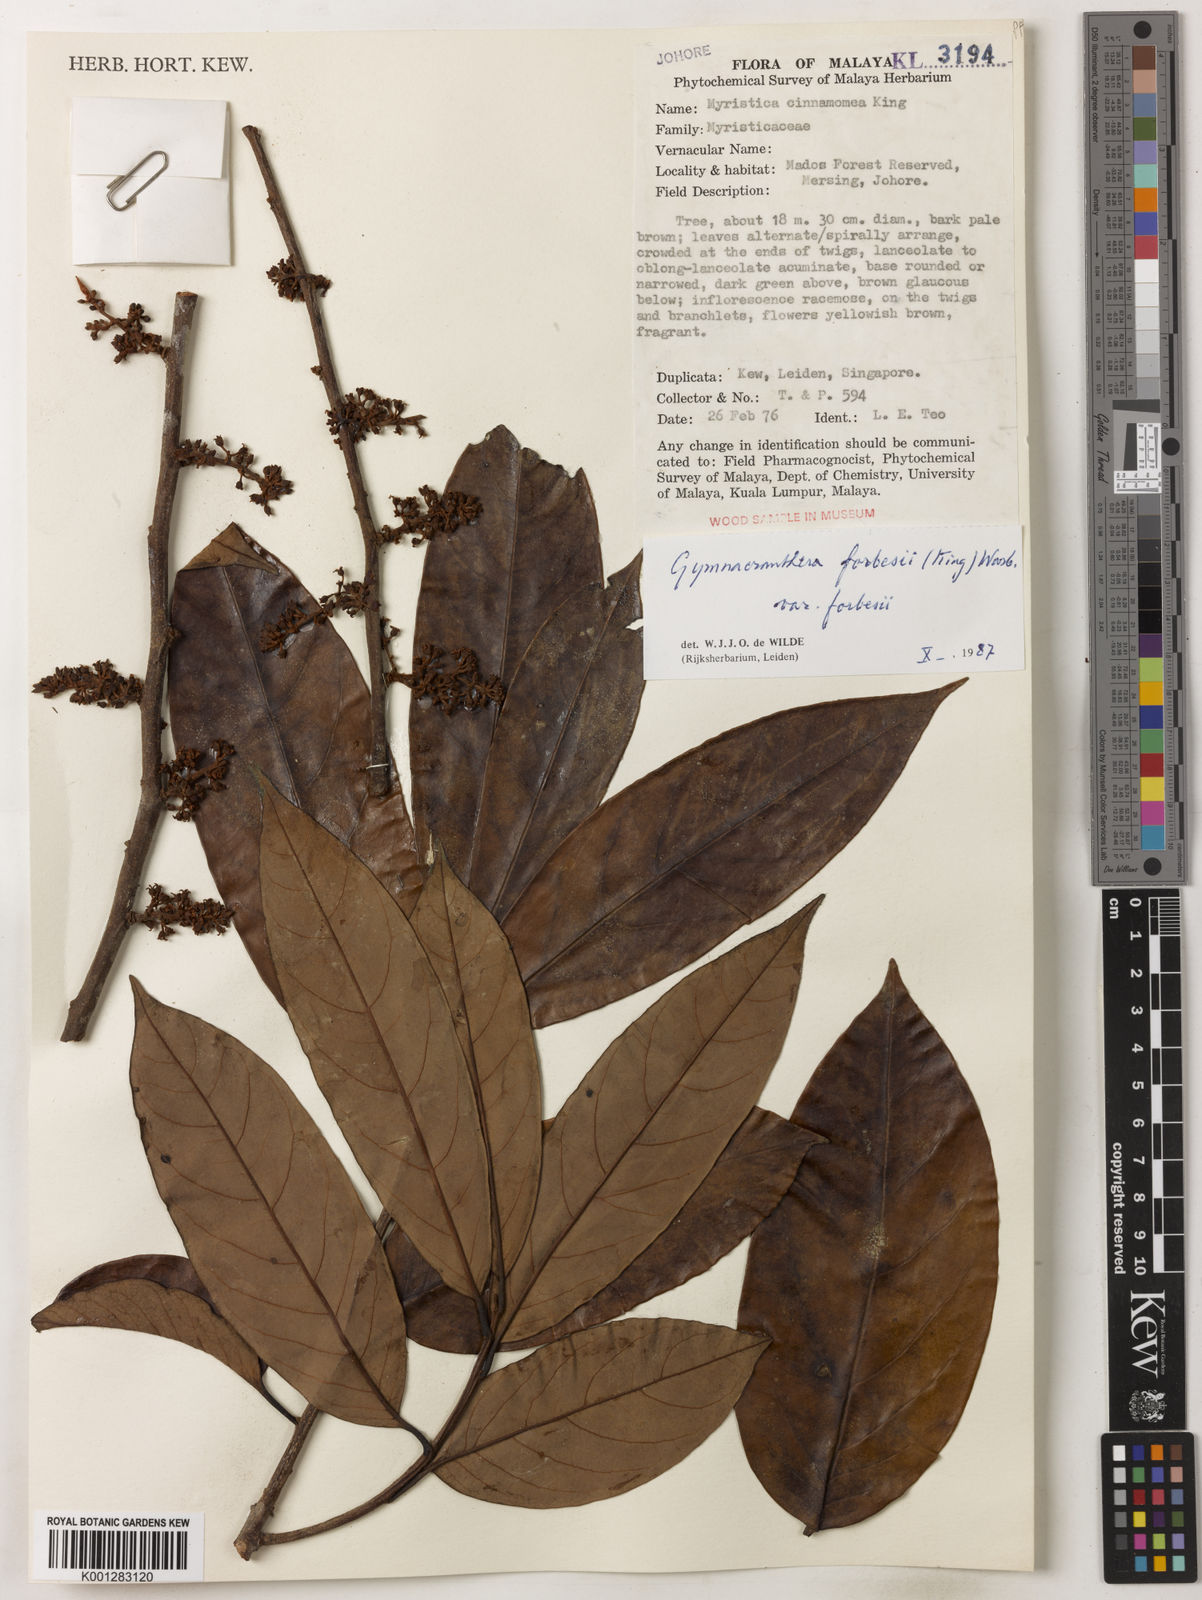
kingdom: Plantae
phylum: Tracheophyta
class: Magnoliopsida
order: Magnoliales
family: Myristicaceae
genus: Gymnacranthera
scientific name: Gymnacranthera forbesii
